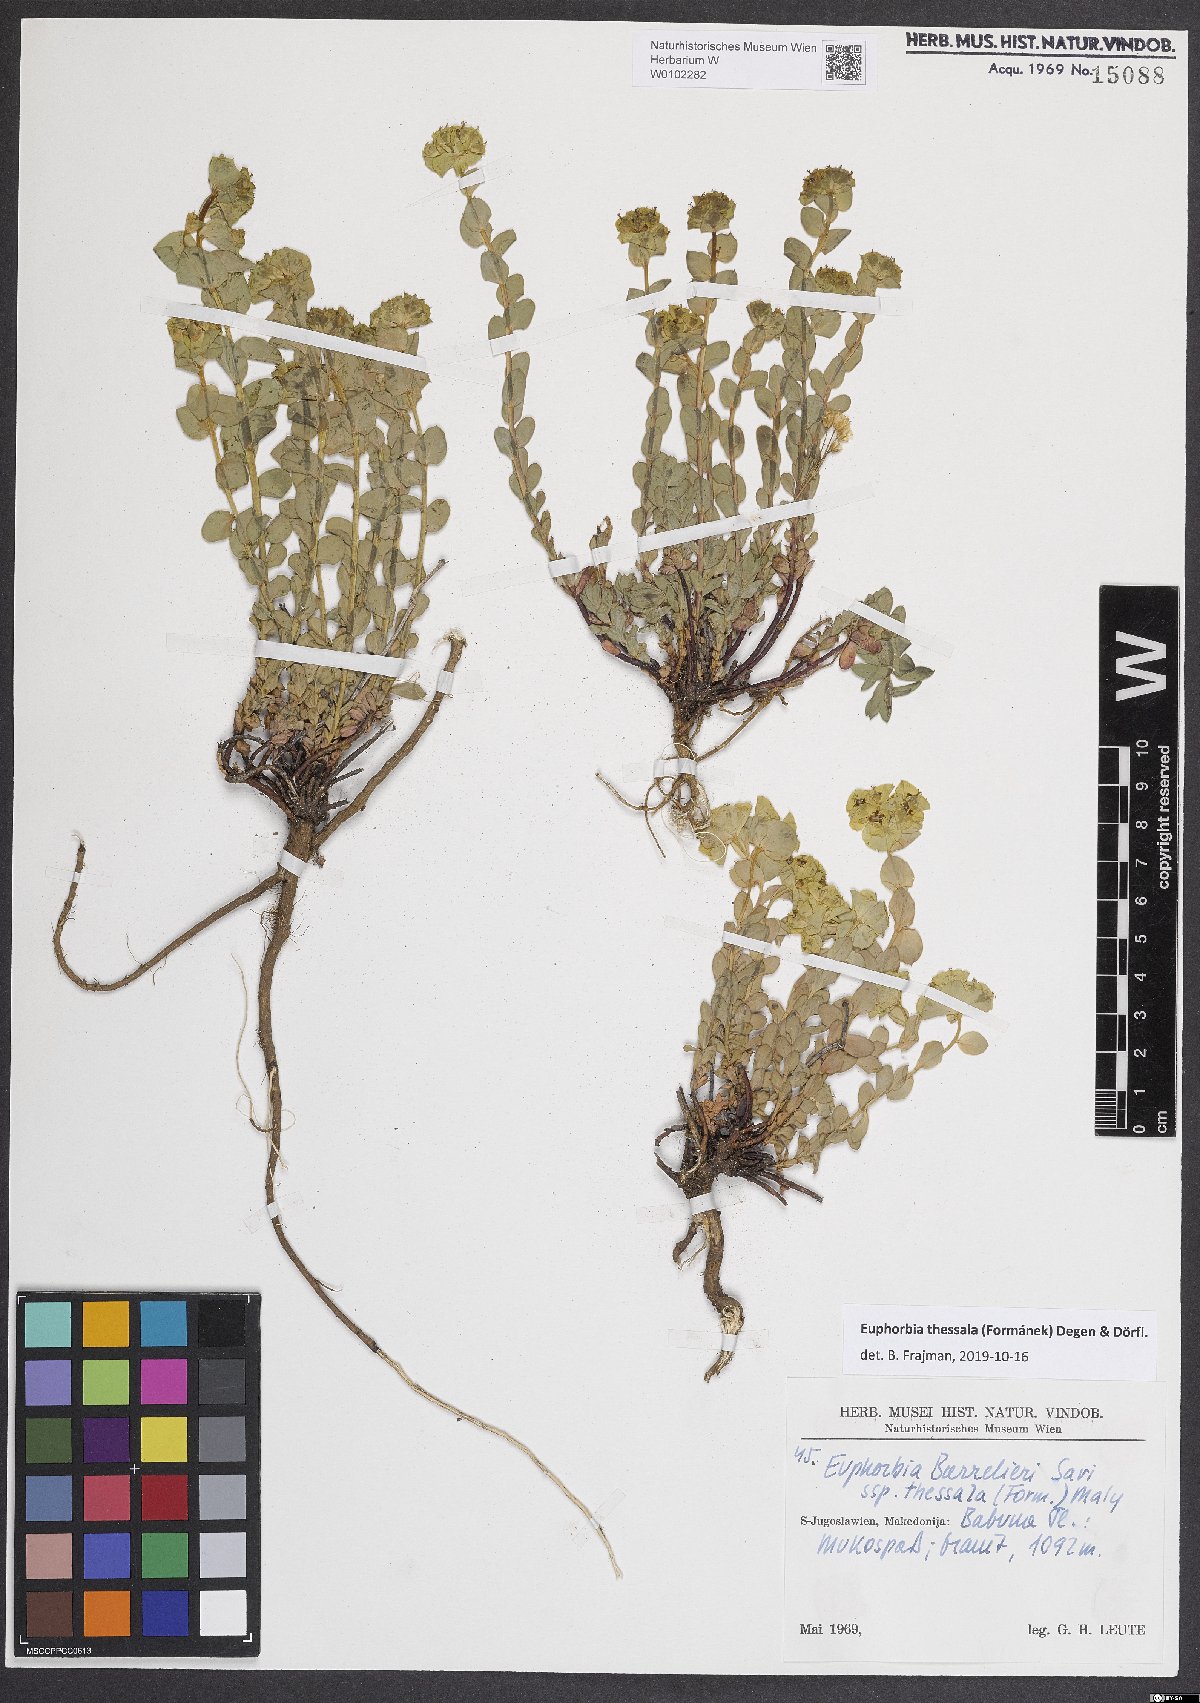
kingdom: Plantae
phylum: Tracheophyta
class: Magnoliopsida
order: Malpighiales
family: Euphorbiaceae
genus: Euphorbia
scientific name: Euphorbia barrelieri
